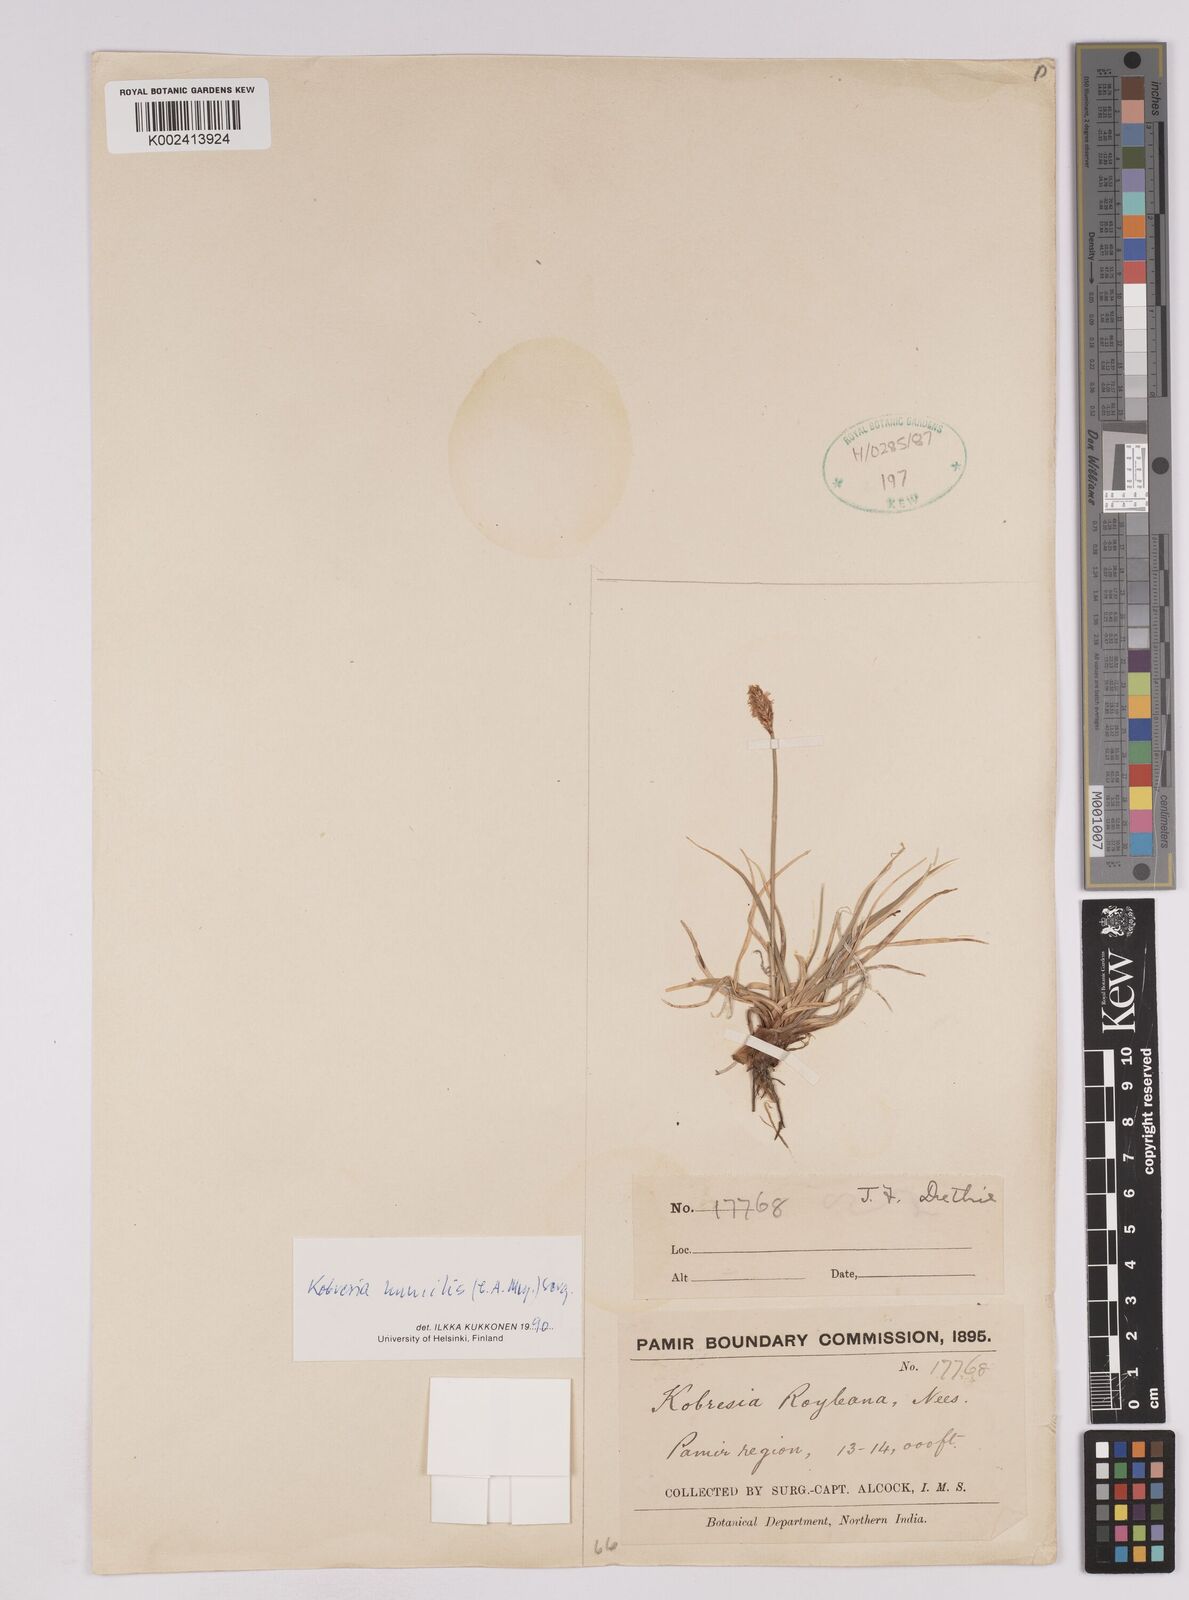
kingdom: Plantae
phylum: Tracheophyta
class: Liliopsida
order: Poales
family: Cyperaceae
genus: Carex
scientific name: Carex alatauensis
